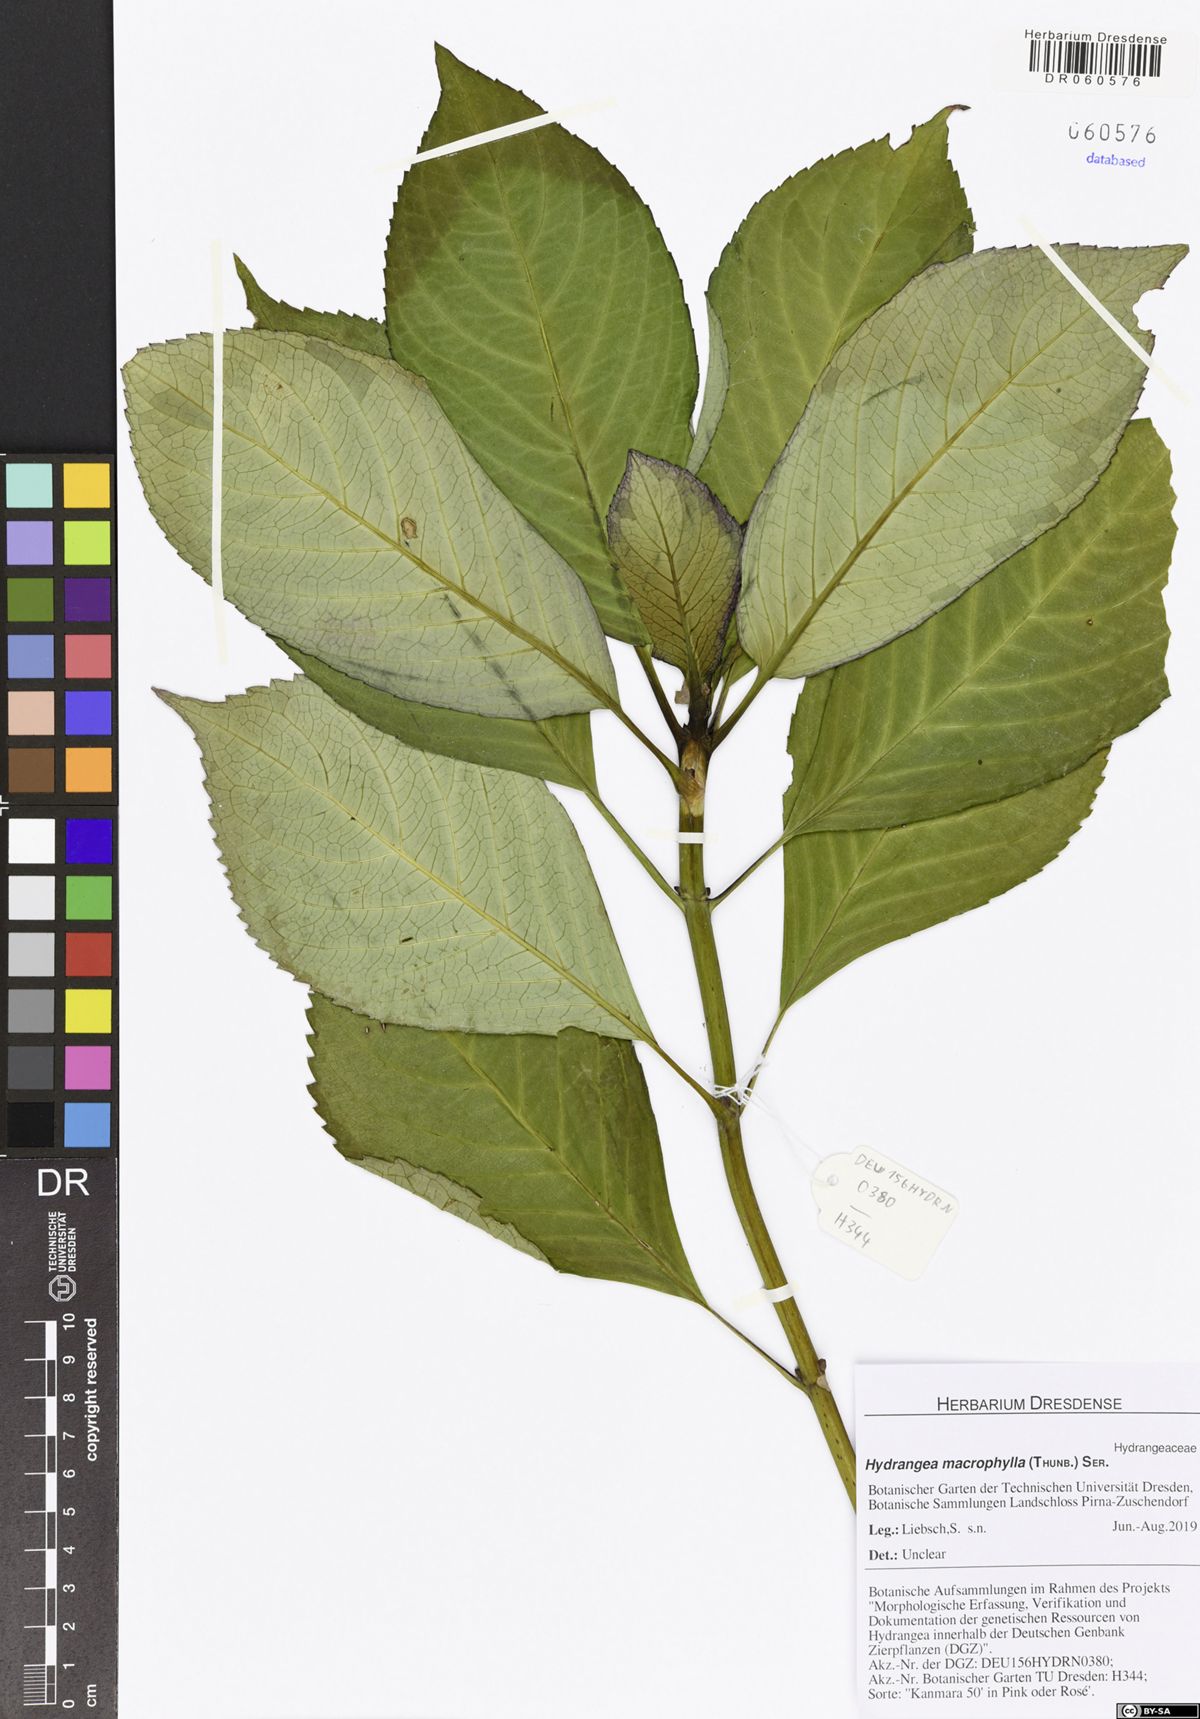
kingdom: Plantae
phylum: Tracheophyta
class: Magnoliopsida
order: Cornales
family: Hydrangeaceae
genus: Hydrangea
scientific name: Hydrangea macrophylla
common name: Hydrangea
